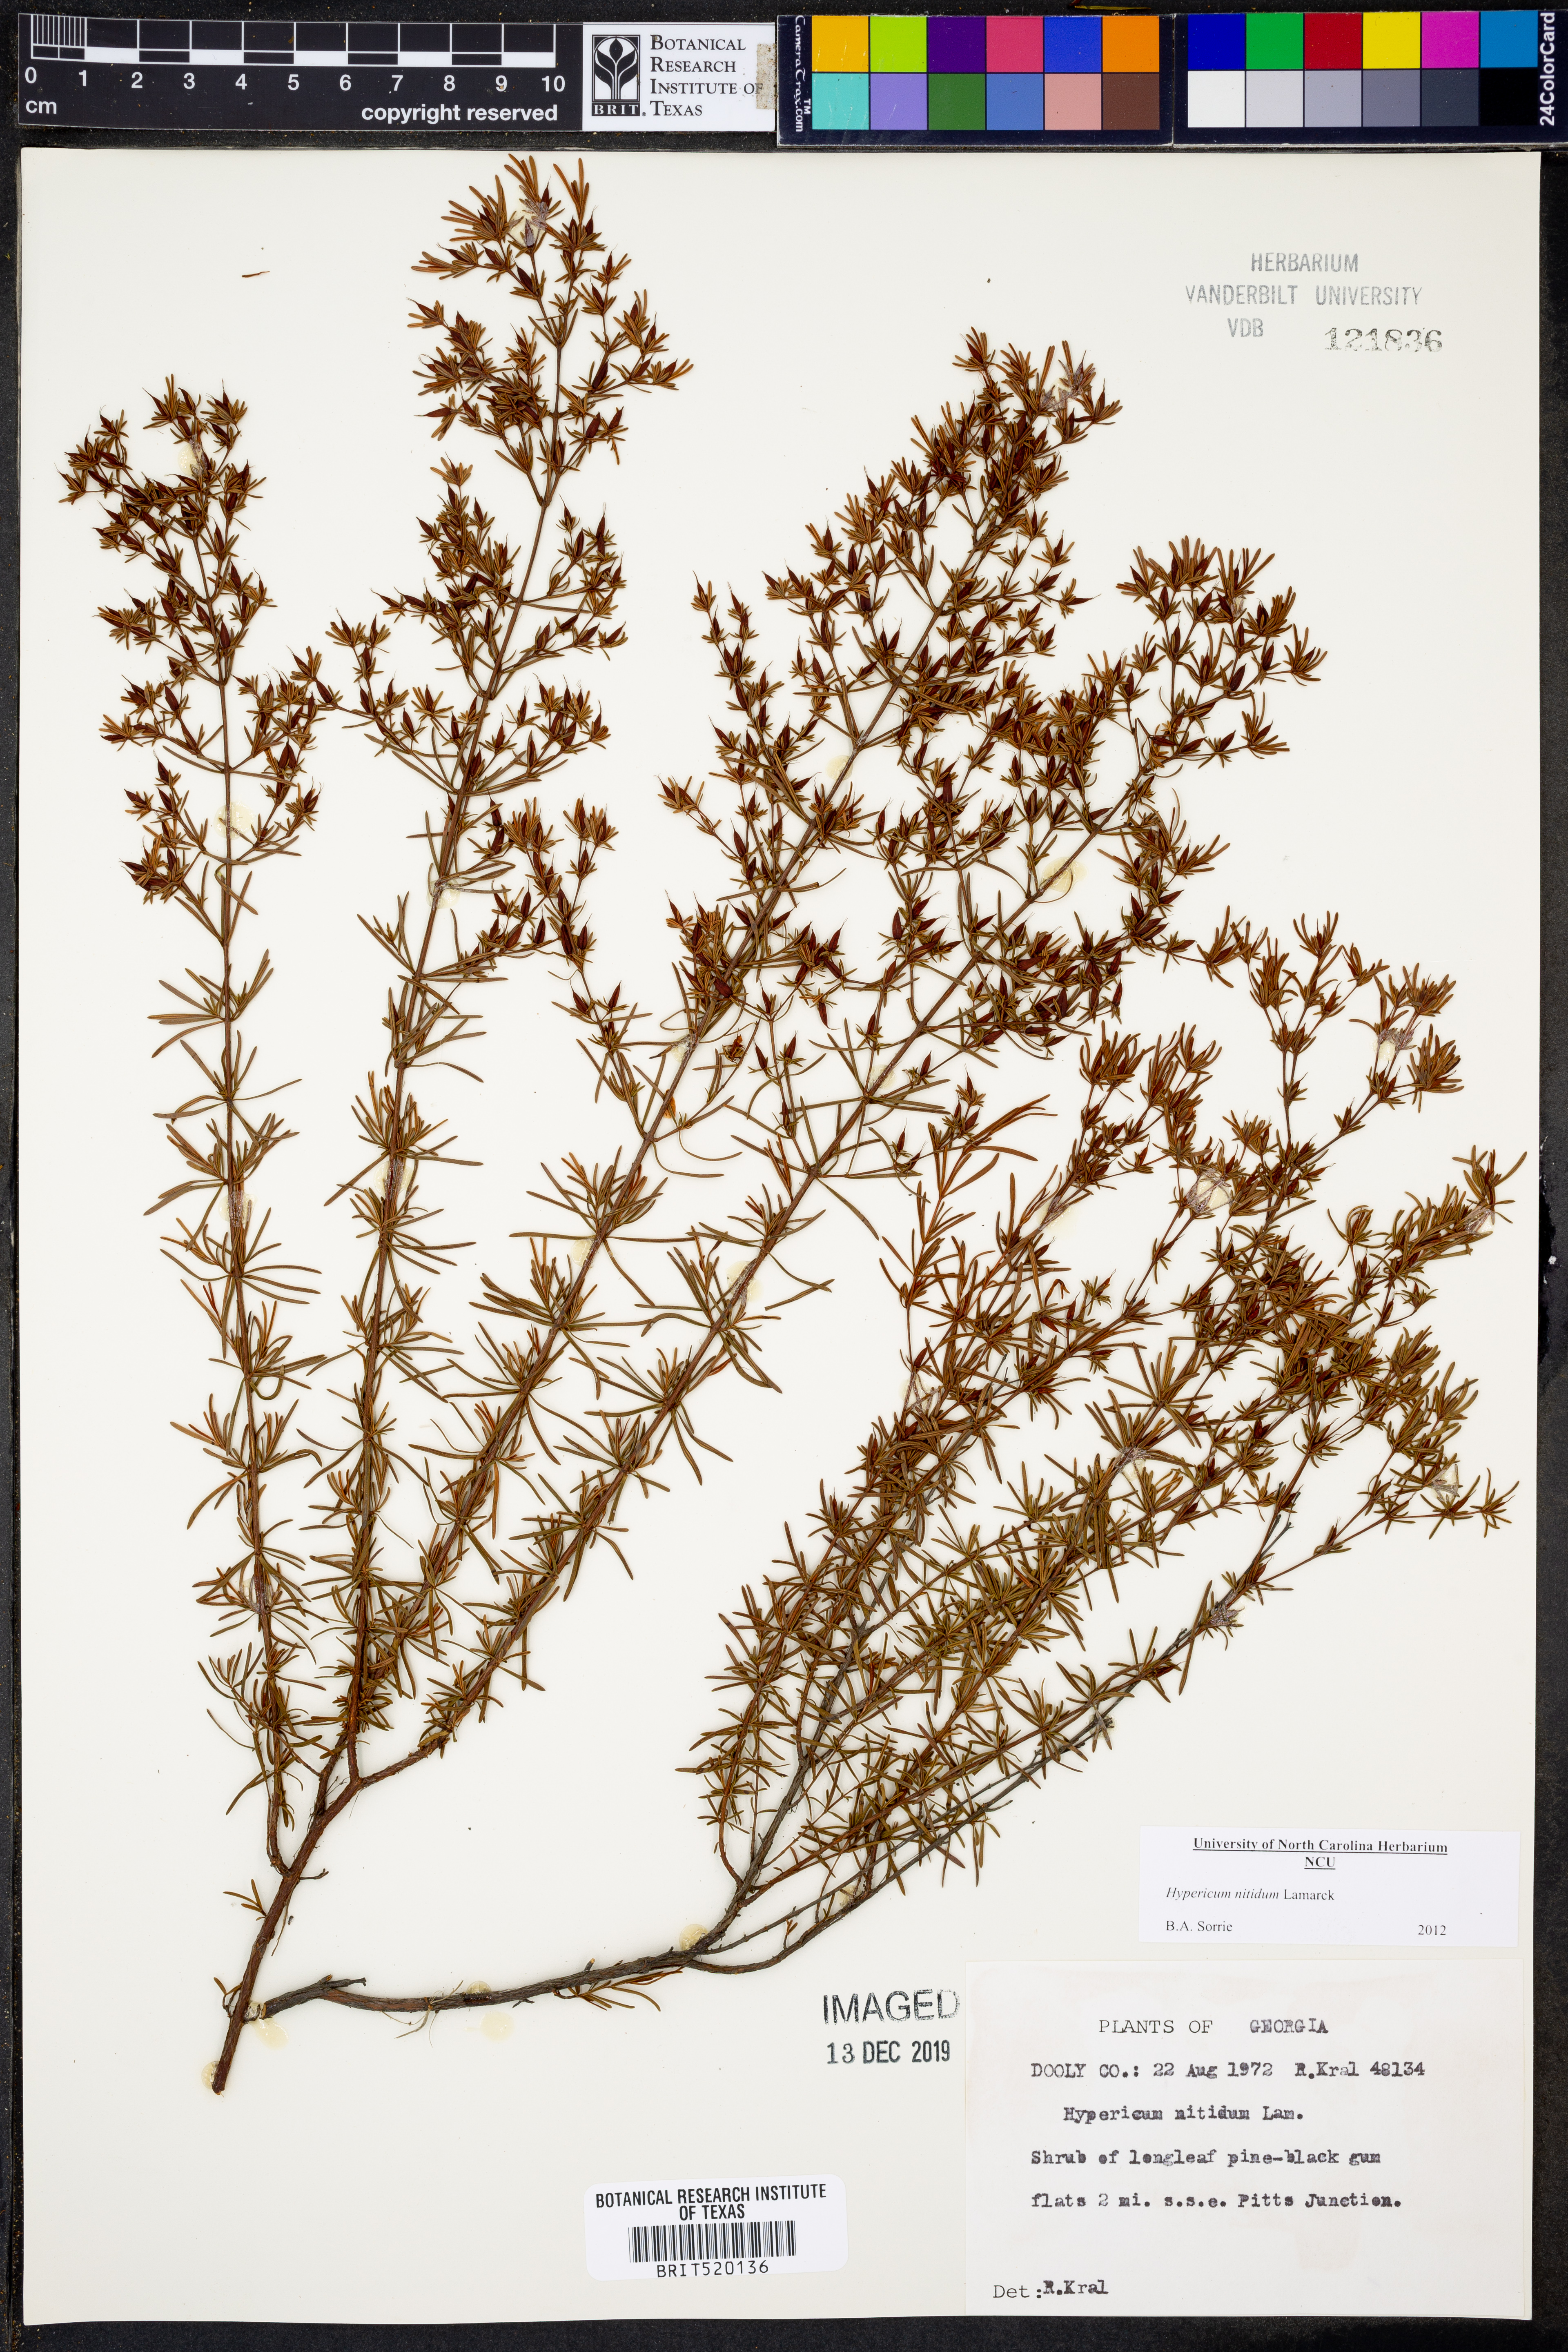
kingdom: Plantae
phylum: Tracheophyta
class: Magnoliopsida
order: Malpighiales
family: Hypericaceae
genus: Hypericum
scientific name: Hypericum nitidum
